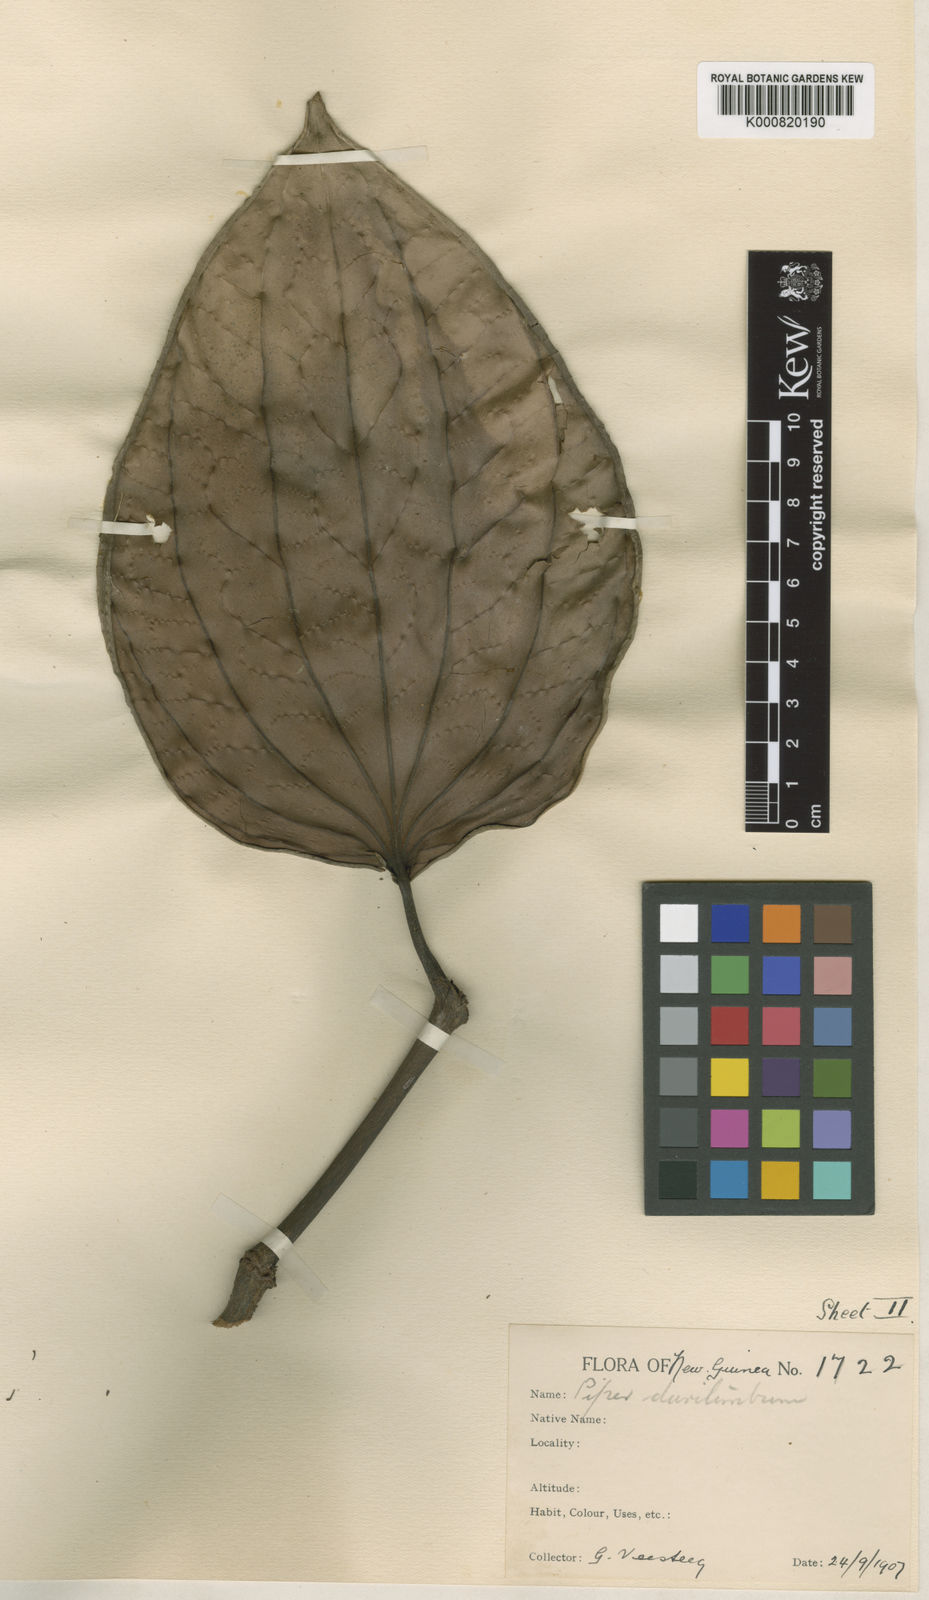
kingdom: Plantae
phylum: Tracheophyta
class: Magnoliopsida
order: Piperales
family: Piperaceae
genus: Piper
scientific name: Piper durilignum
